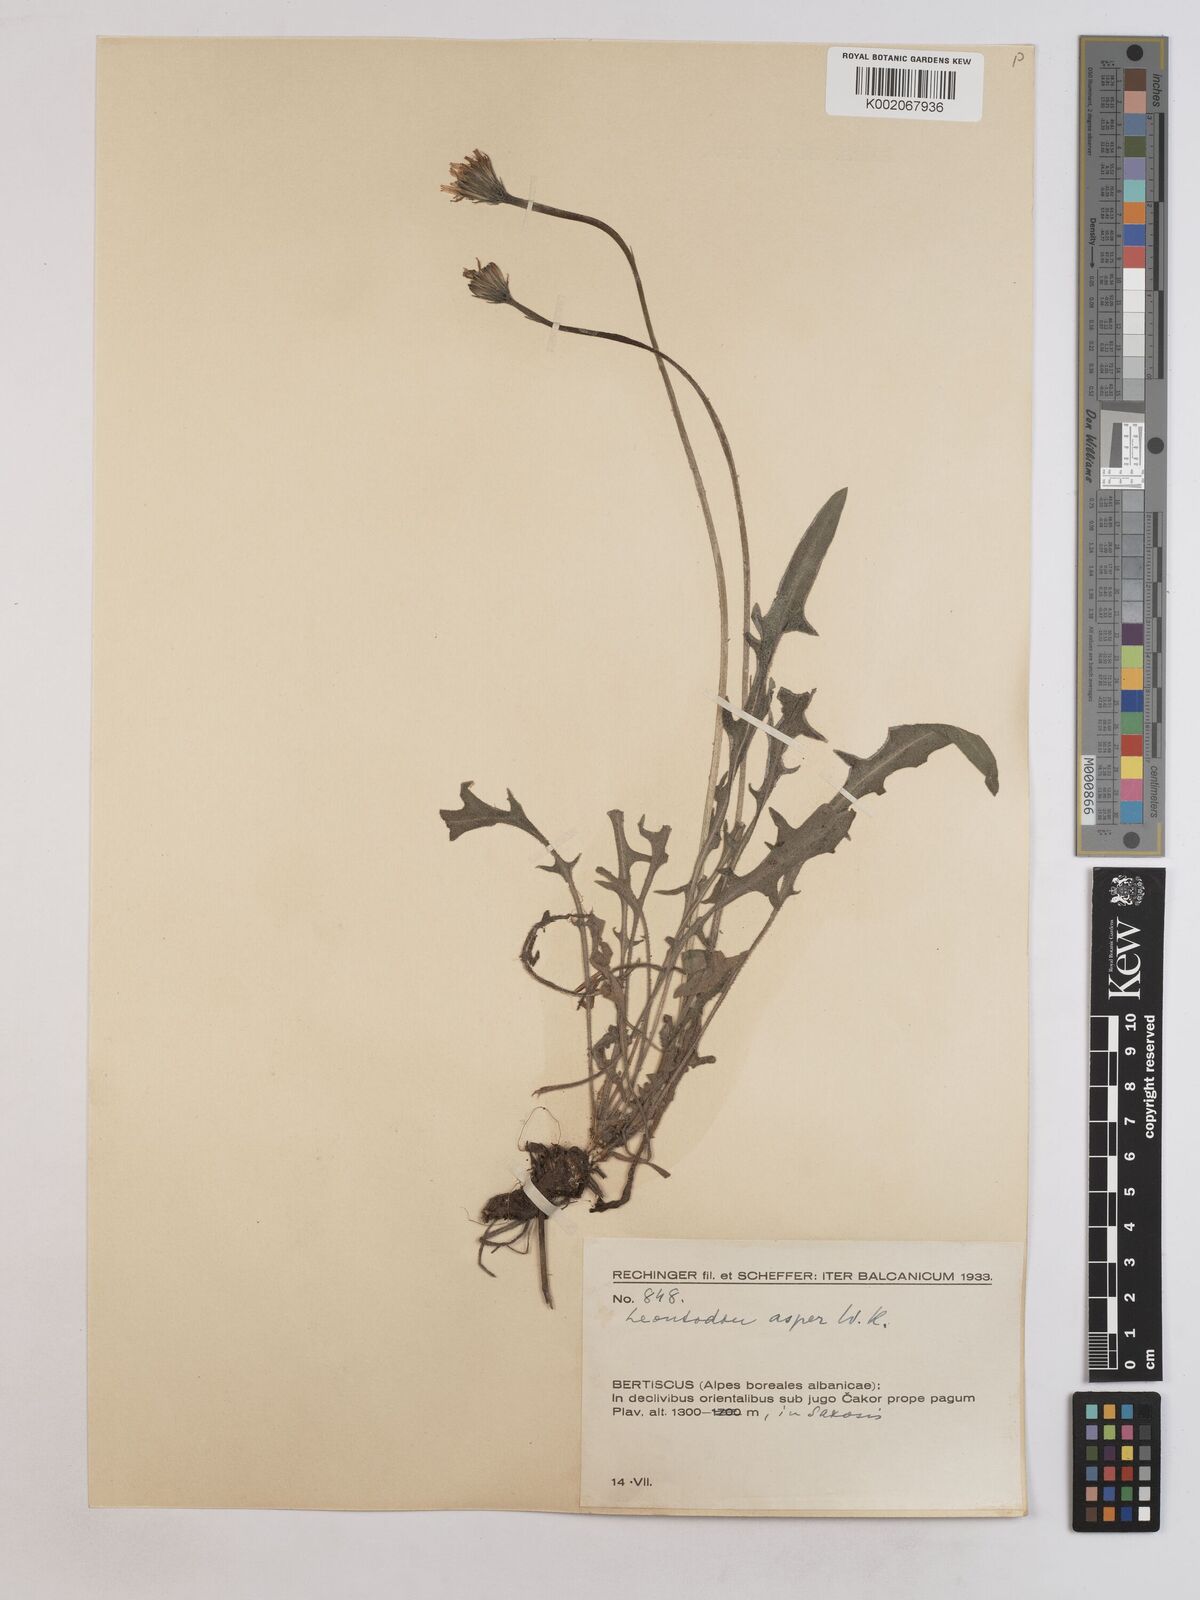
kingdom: Plantae
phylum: Tracheophyta
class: Magnoliopsida
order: Asterales
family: Asteraceae
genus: Leontodon
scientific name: Leontodon crispus
